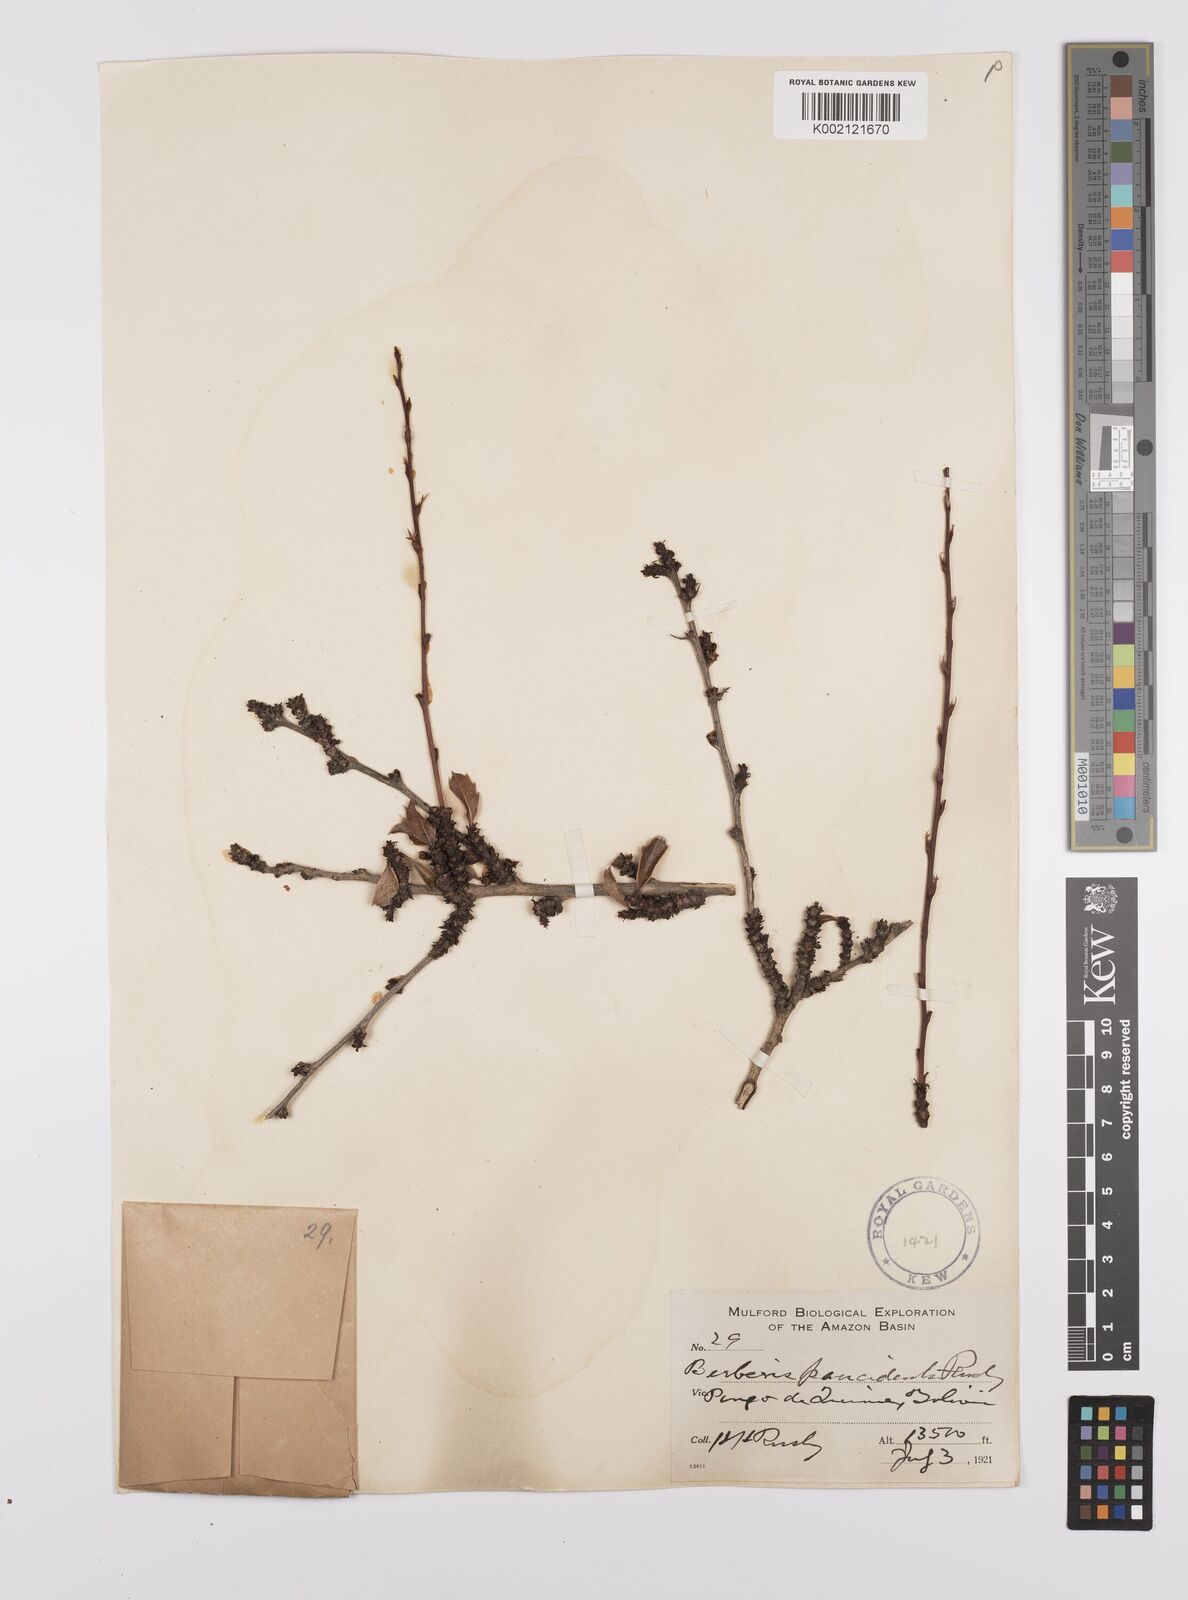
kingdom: Plantae
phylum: Tracheophyta
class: Magnoliopsida
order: Ranunculales
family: Berberidaceae
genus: Berberis
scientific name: Berberis phyllacantha
